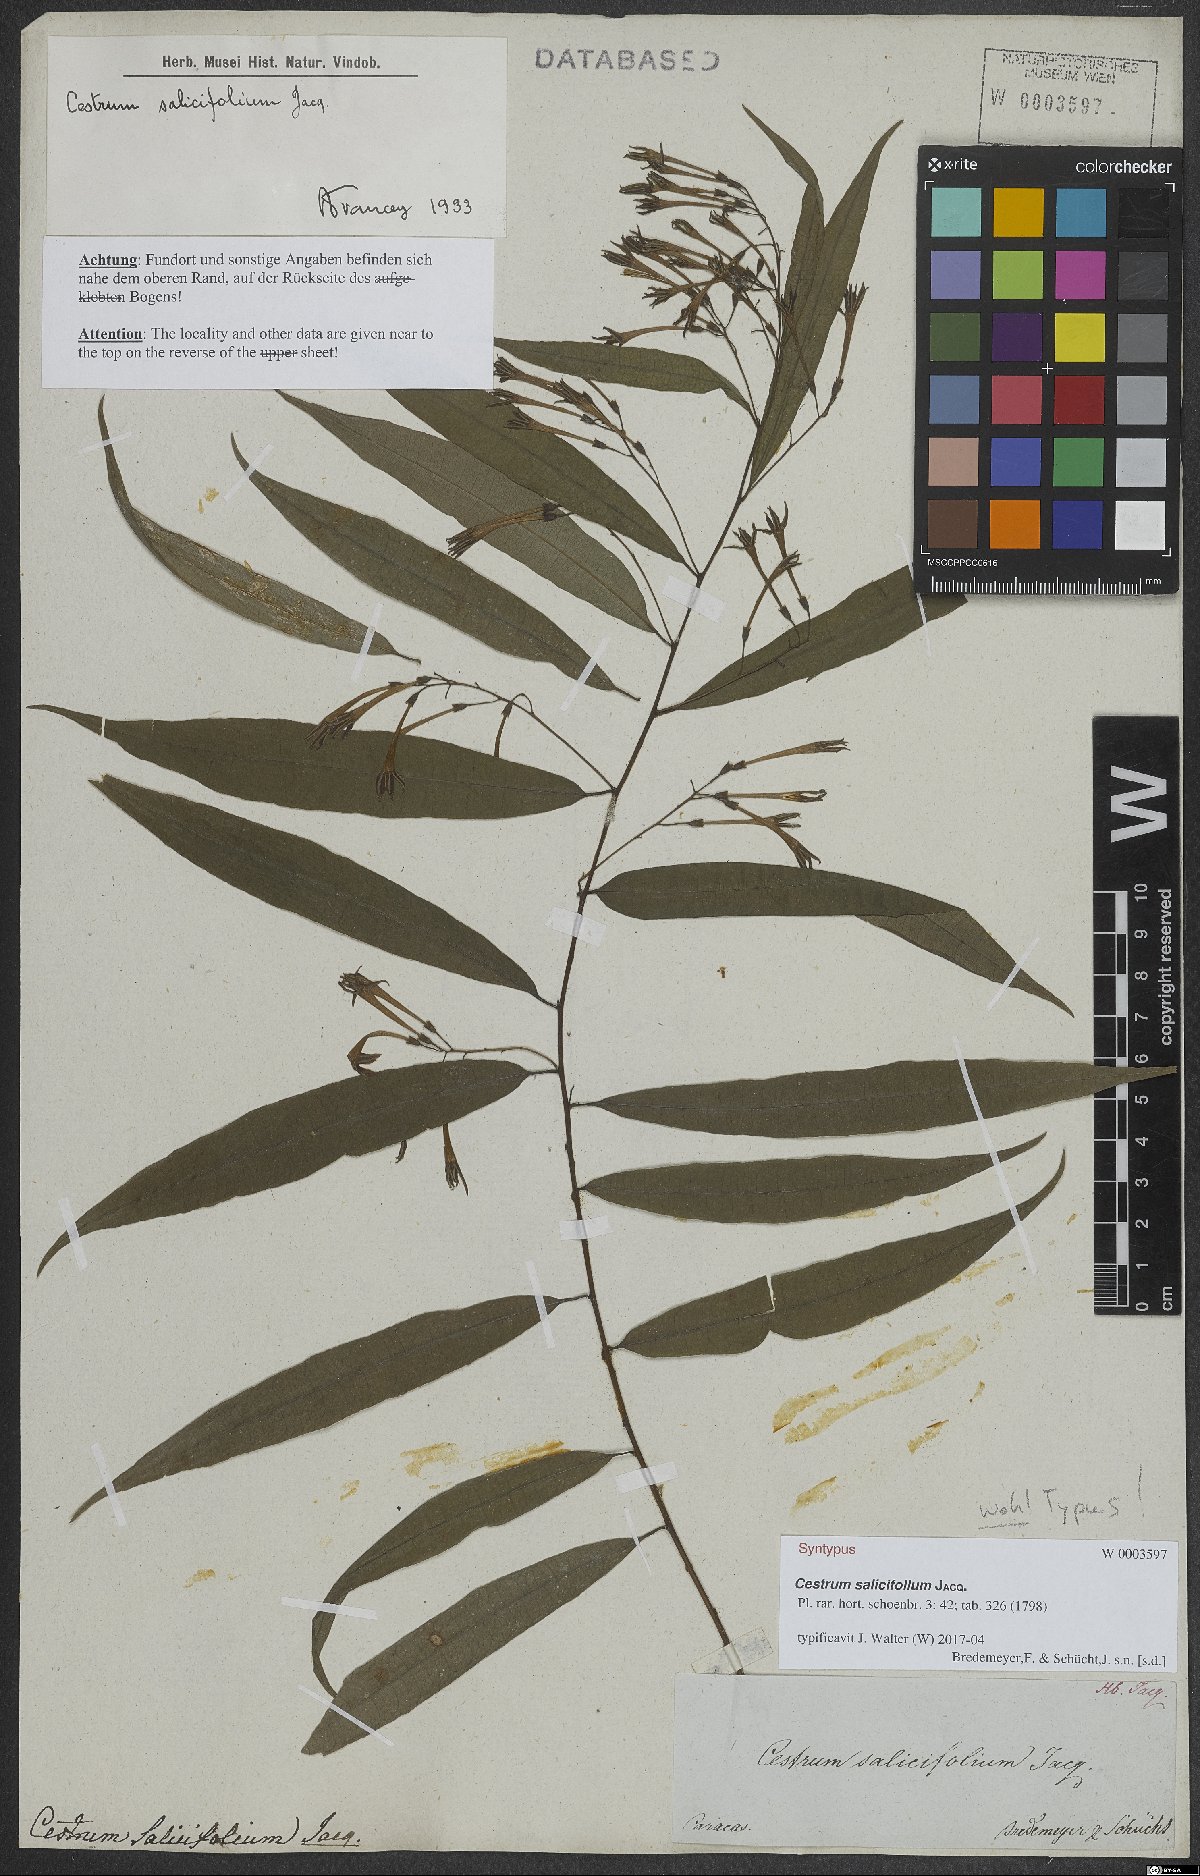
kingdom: Plantae
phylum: Tracheophyta
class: Magnoliopsida
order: Solanales
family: Solanaceae
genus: Cestrum
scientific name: Cestrum salicifolium
